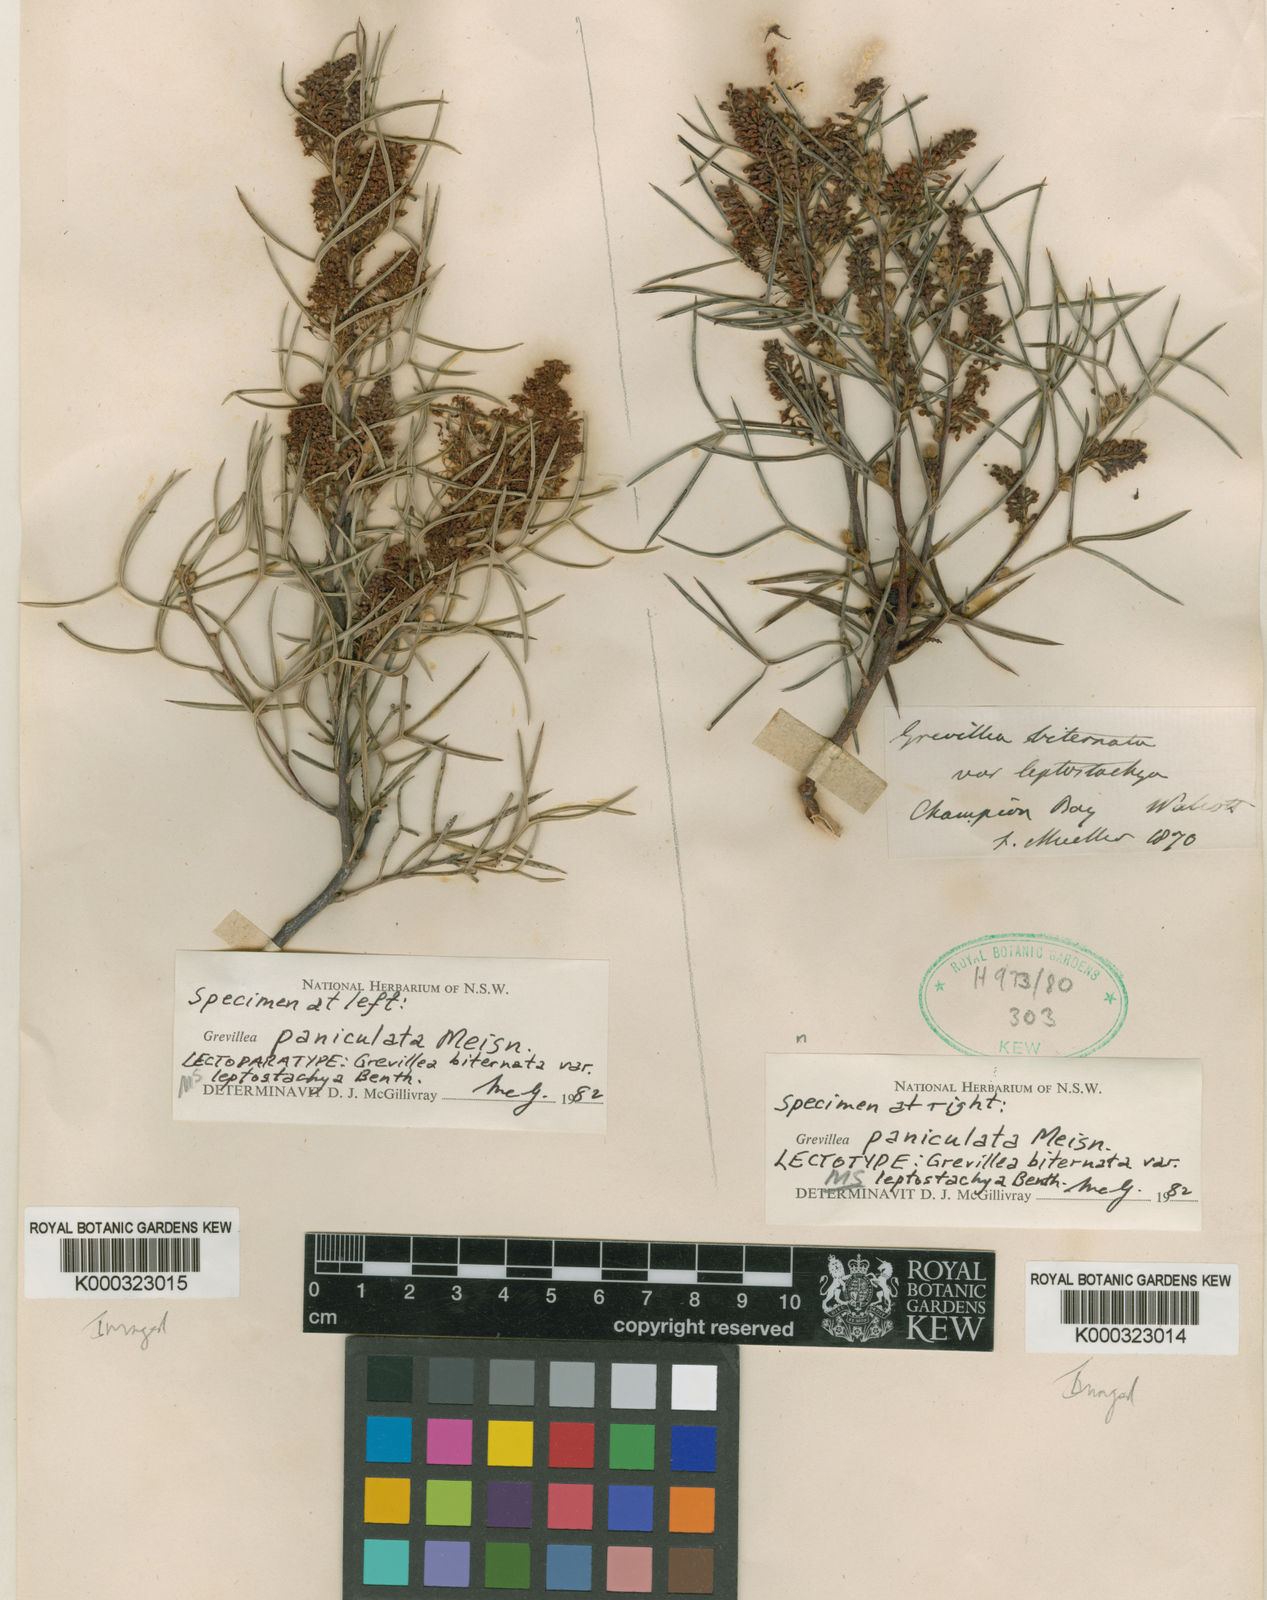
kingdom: Plantae
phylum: Tracheophyta
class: Magnoliopsida
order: Proteales
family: Proteaceae
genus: Grevillea
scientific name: Grevillea biternata
